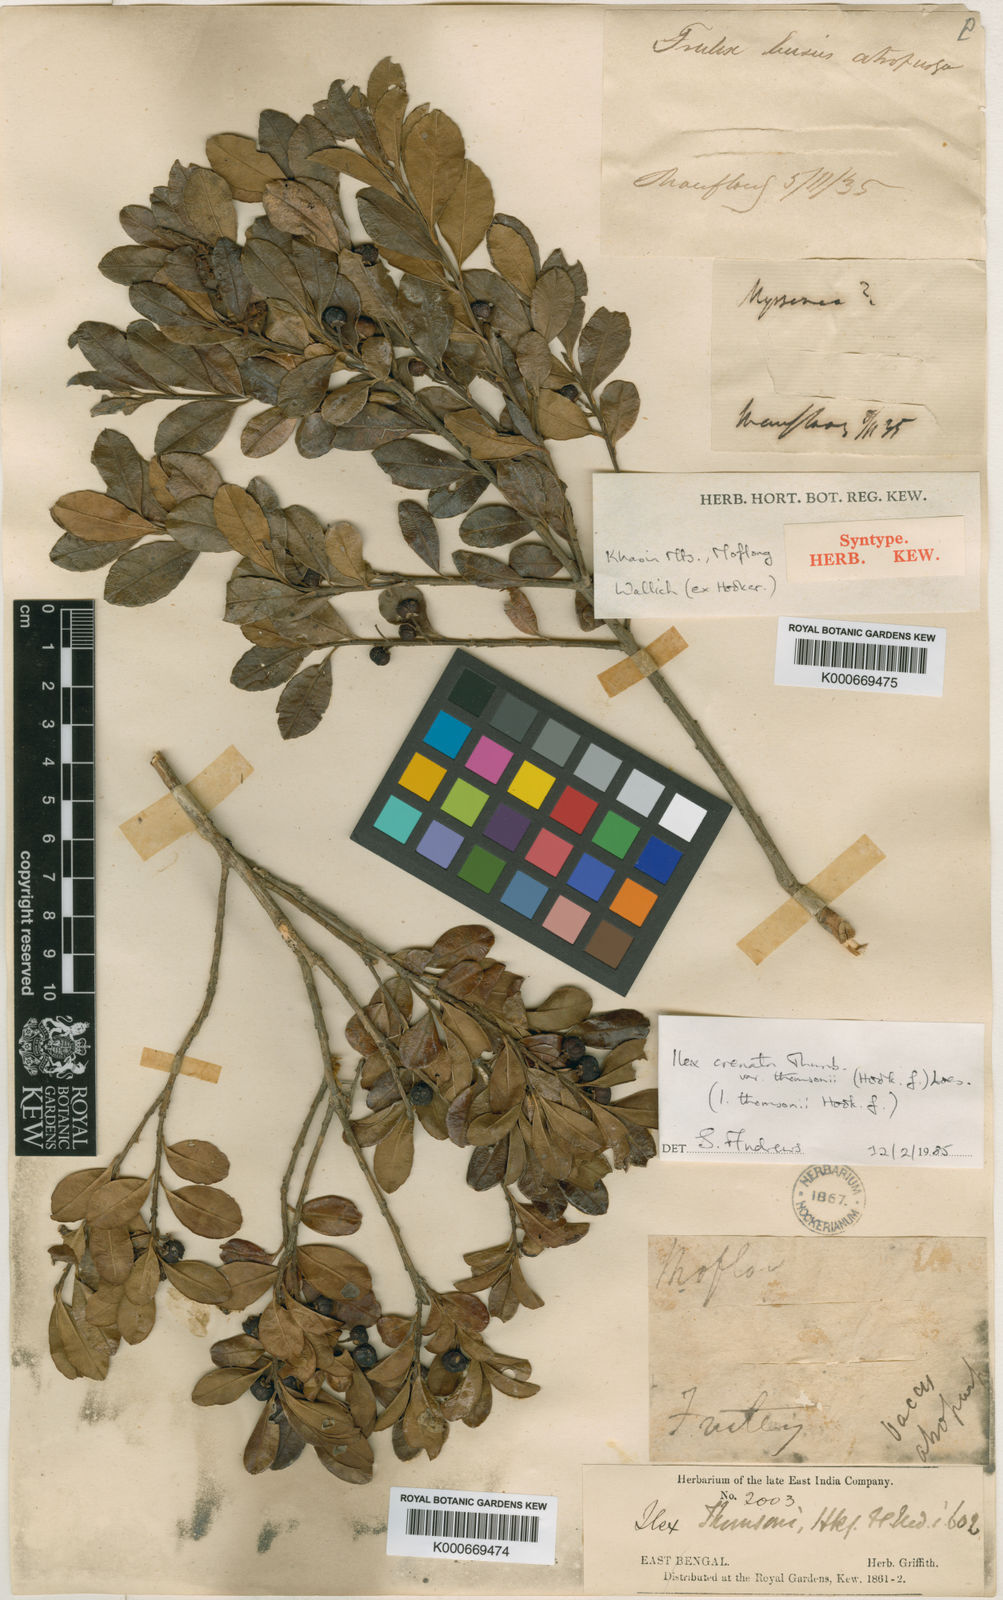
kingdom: Plantae
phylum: Tracheophyta
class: Magnoliopsida
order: Aquifoliales
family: Aquifoliaceae
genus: Ilex
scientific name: Ilex crenata
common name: Japanese holly
